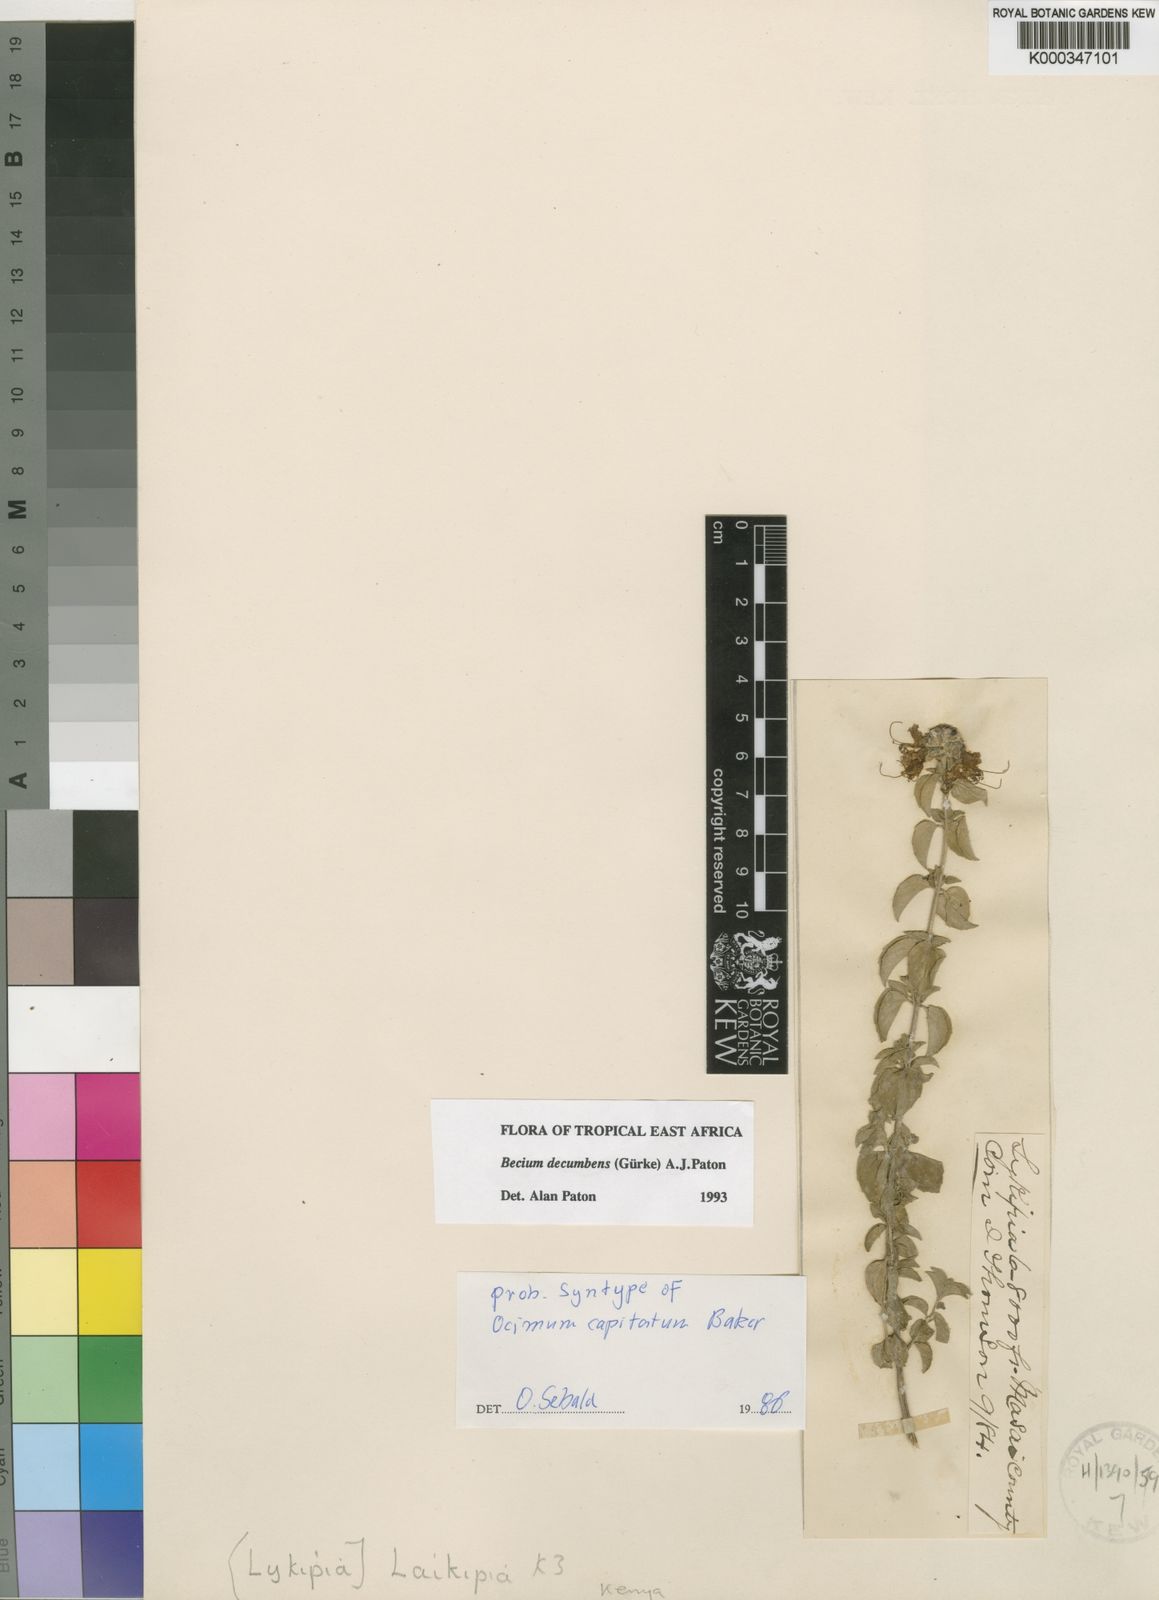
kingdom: Plantae
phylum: Tracheophyta
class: Magnoliopsida
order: Lamiales
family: Lamiaceae
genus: Ocimum
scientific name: Ocimum
